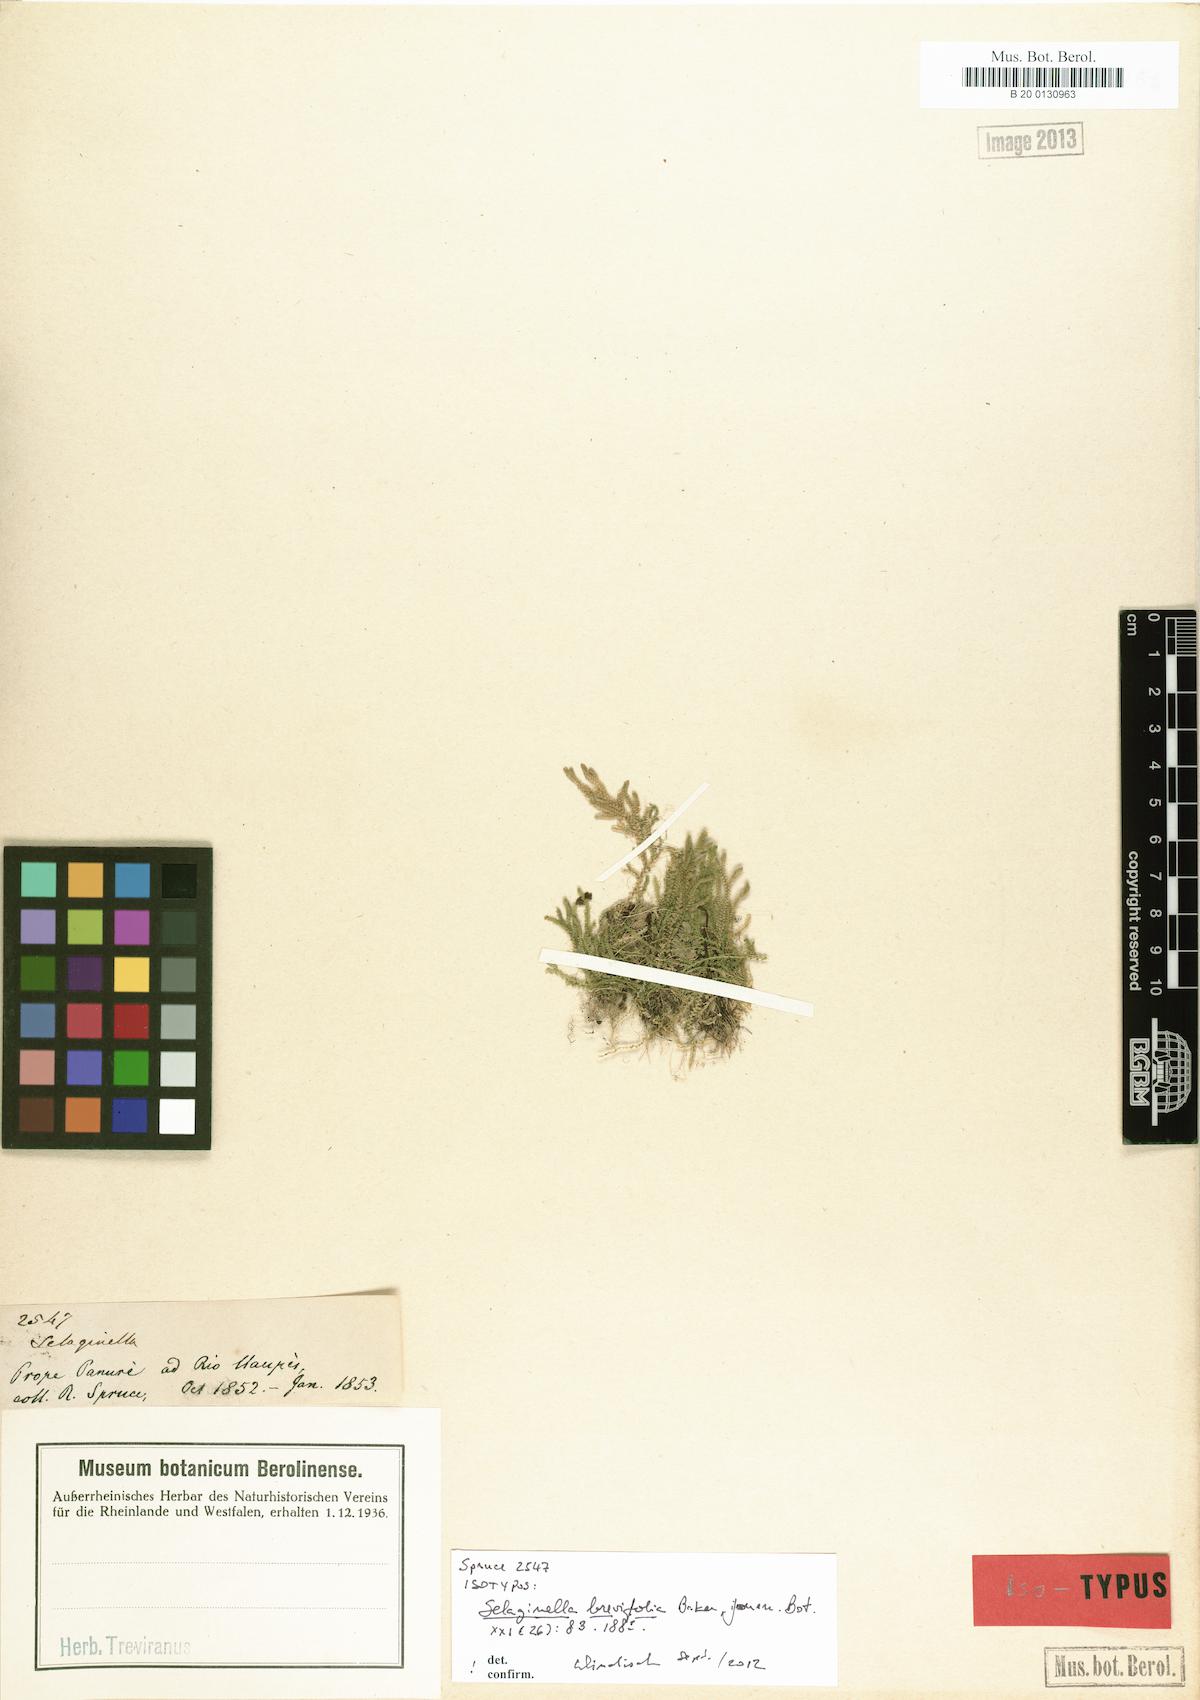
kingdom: Plantae
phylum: Tracheophyta
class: Lycopodiopsida
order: Selaginellales
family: Selaginellaceae
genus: Selaginella
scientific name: Selaginella brevifolia
